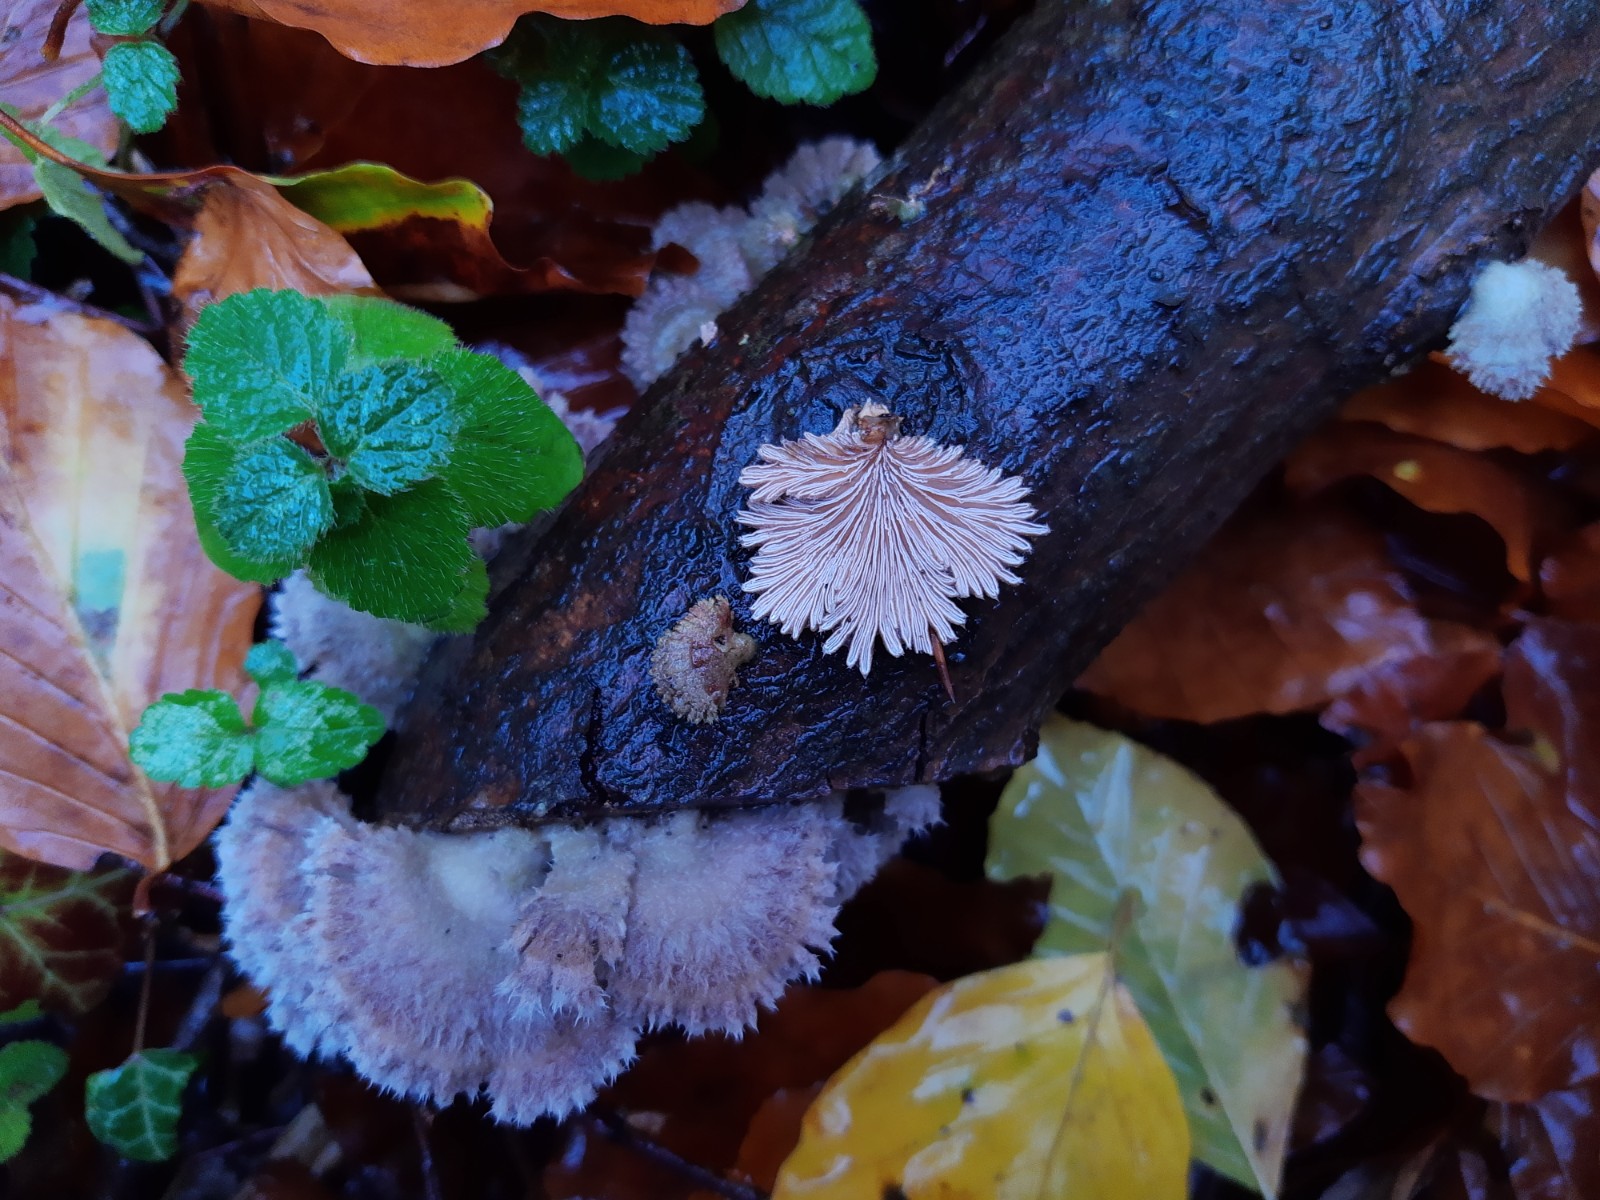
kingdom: Fungi
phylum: Basidiomycota
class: Agaricomycetes
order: Agaricales
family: Schizophyllaceae
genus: Schizophyllum
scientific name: Schizophyllum commune
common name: kløvblad
